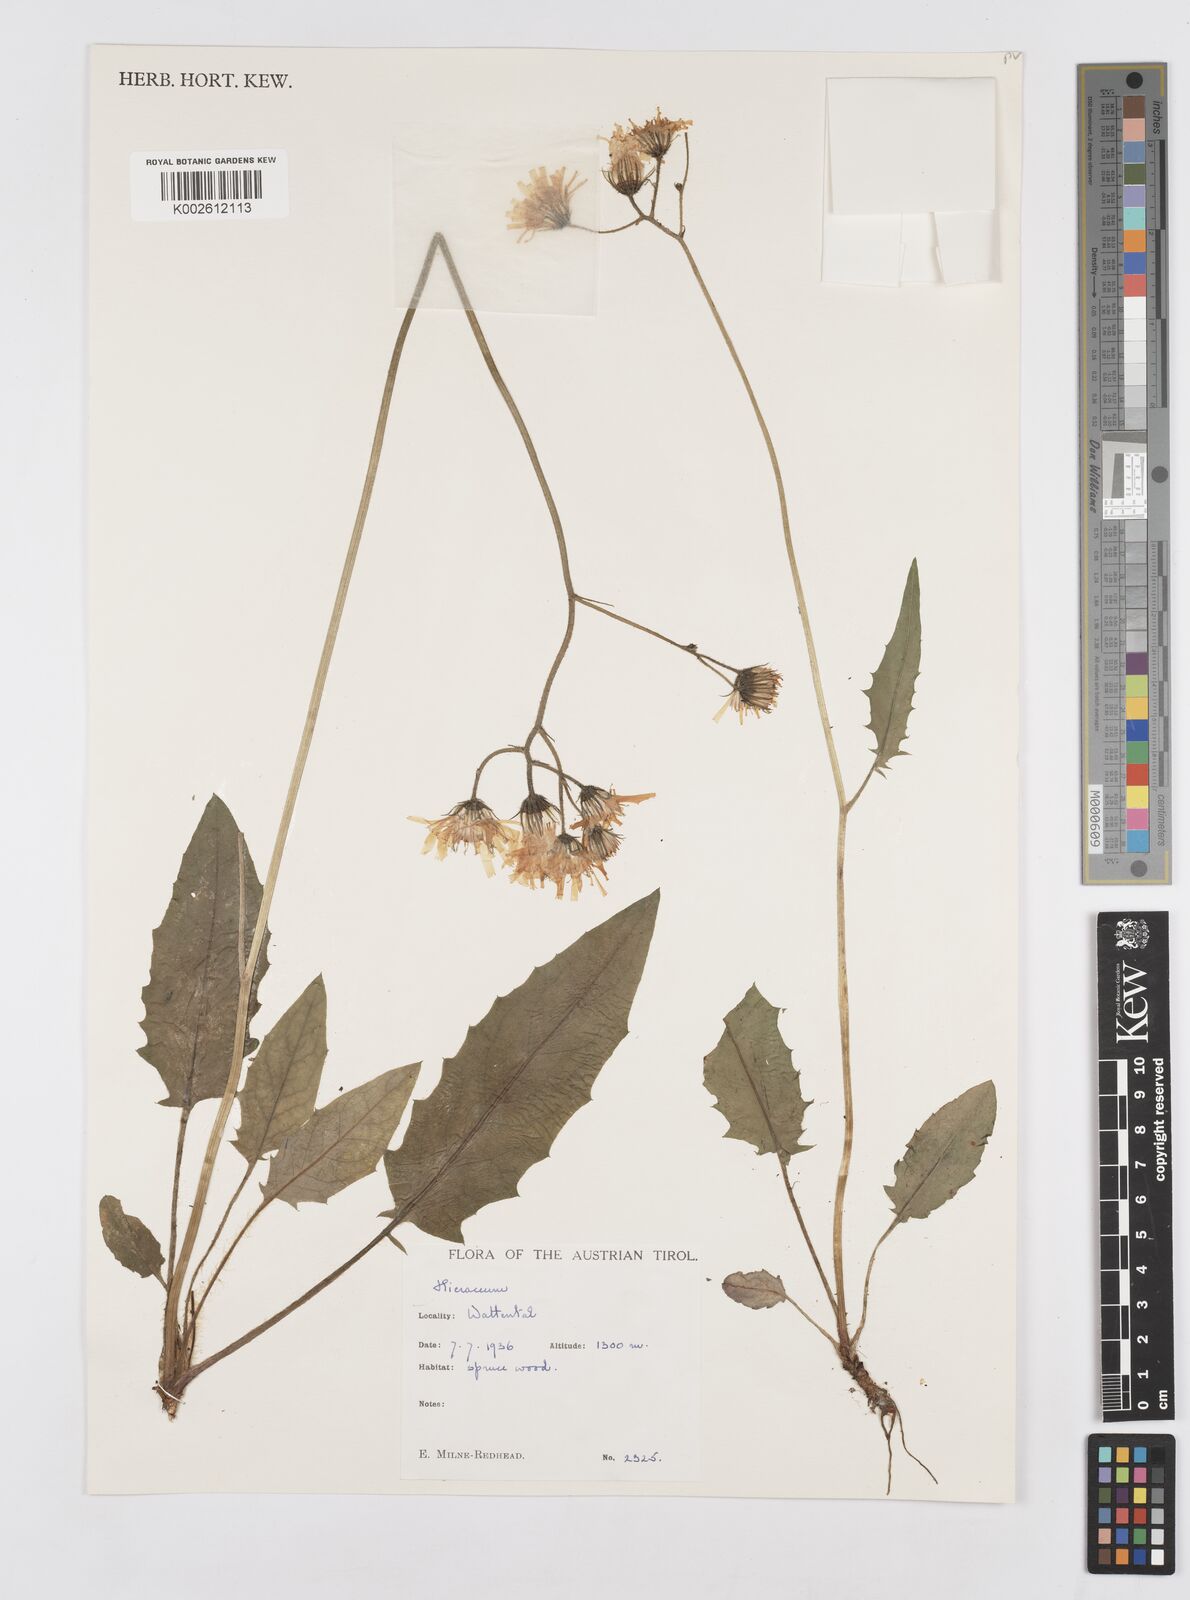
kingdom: Plantae
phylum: Tracheophyta
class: Magnoliopsida
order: Asterales
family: Asteraceae
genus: Hieracium
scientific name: Hieracium
